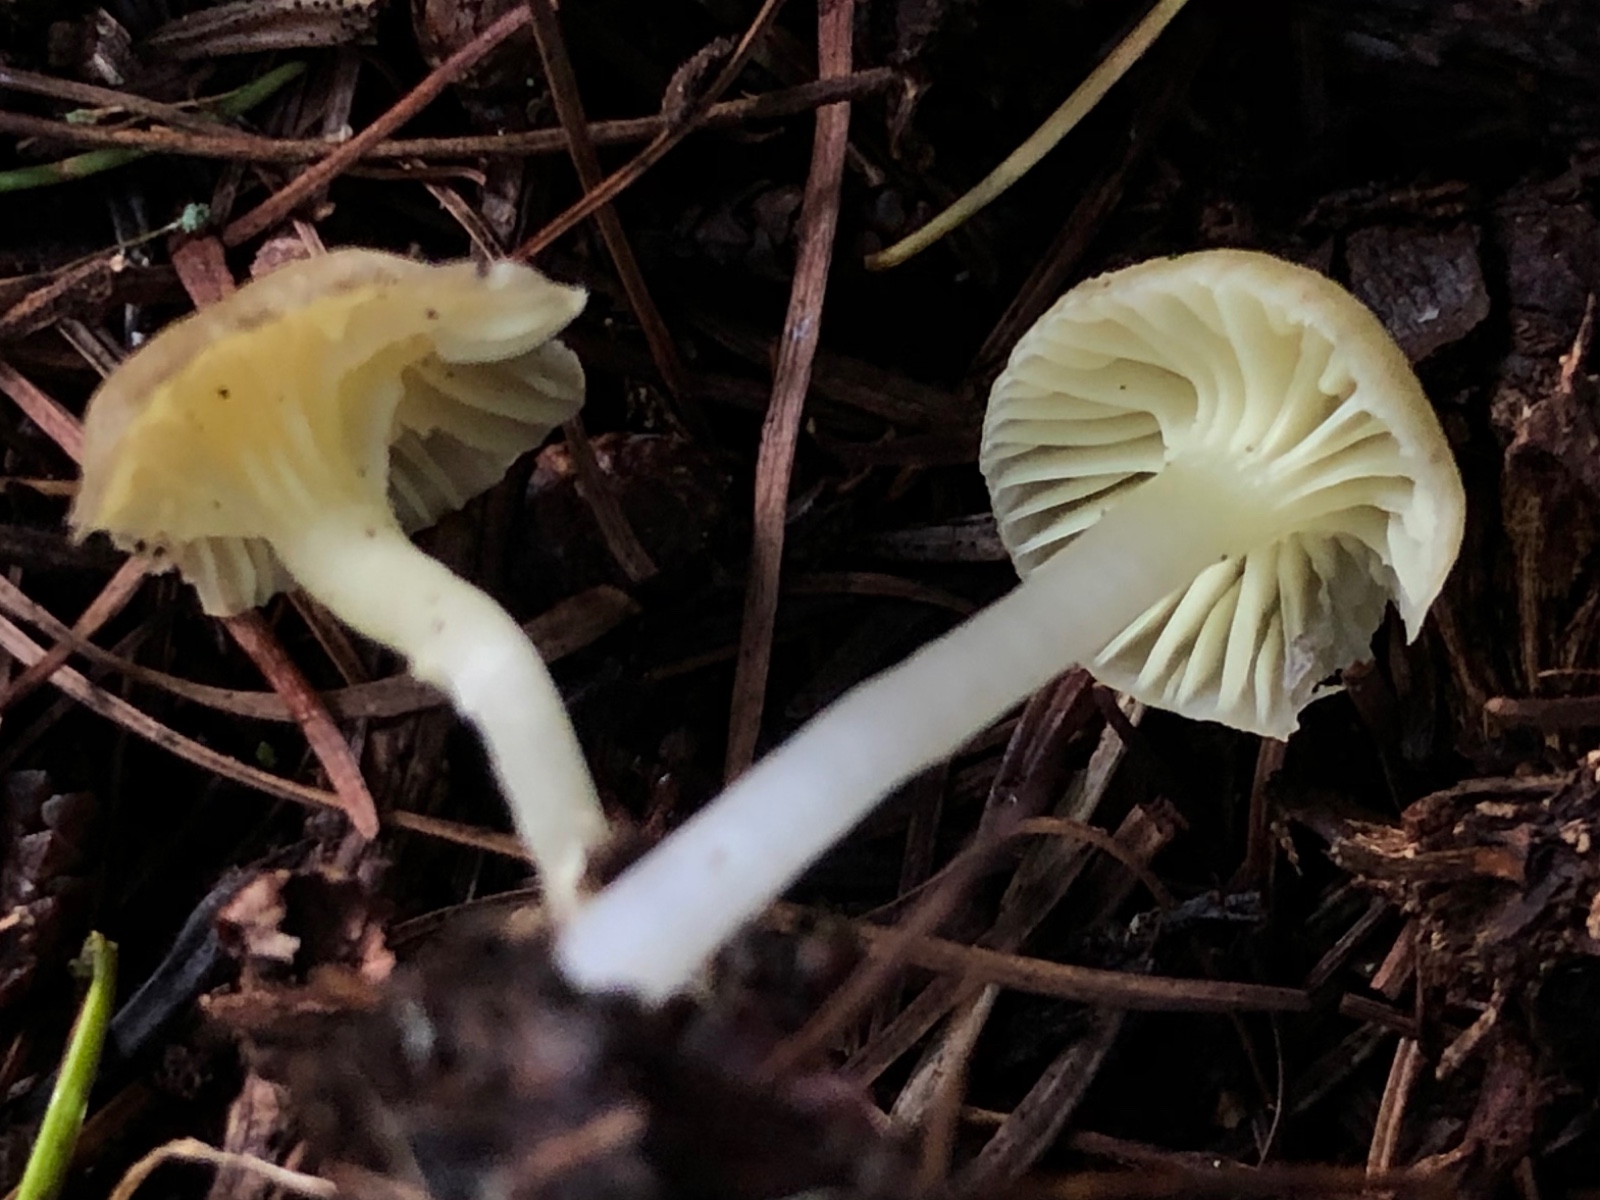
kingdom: Fungi
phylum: Basidiomycota
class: Agaricomycetes
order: Agaricales
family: Hygrophoraceae
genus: Chrysomphalina
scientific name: Chrysomphalina grossula
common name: stød-gyldenblad
